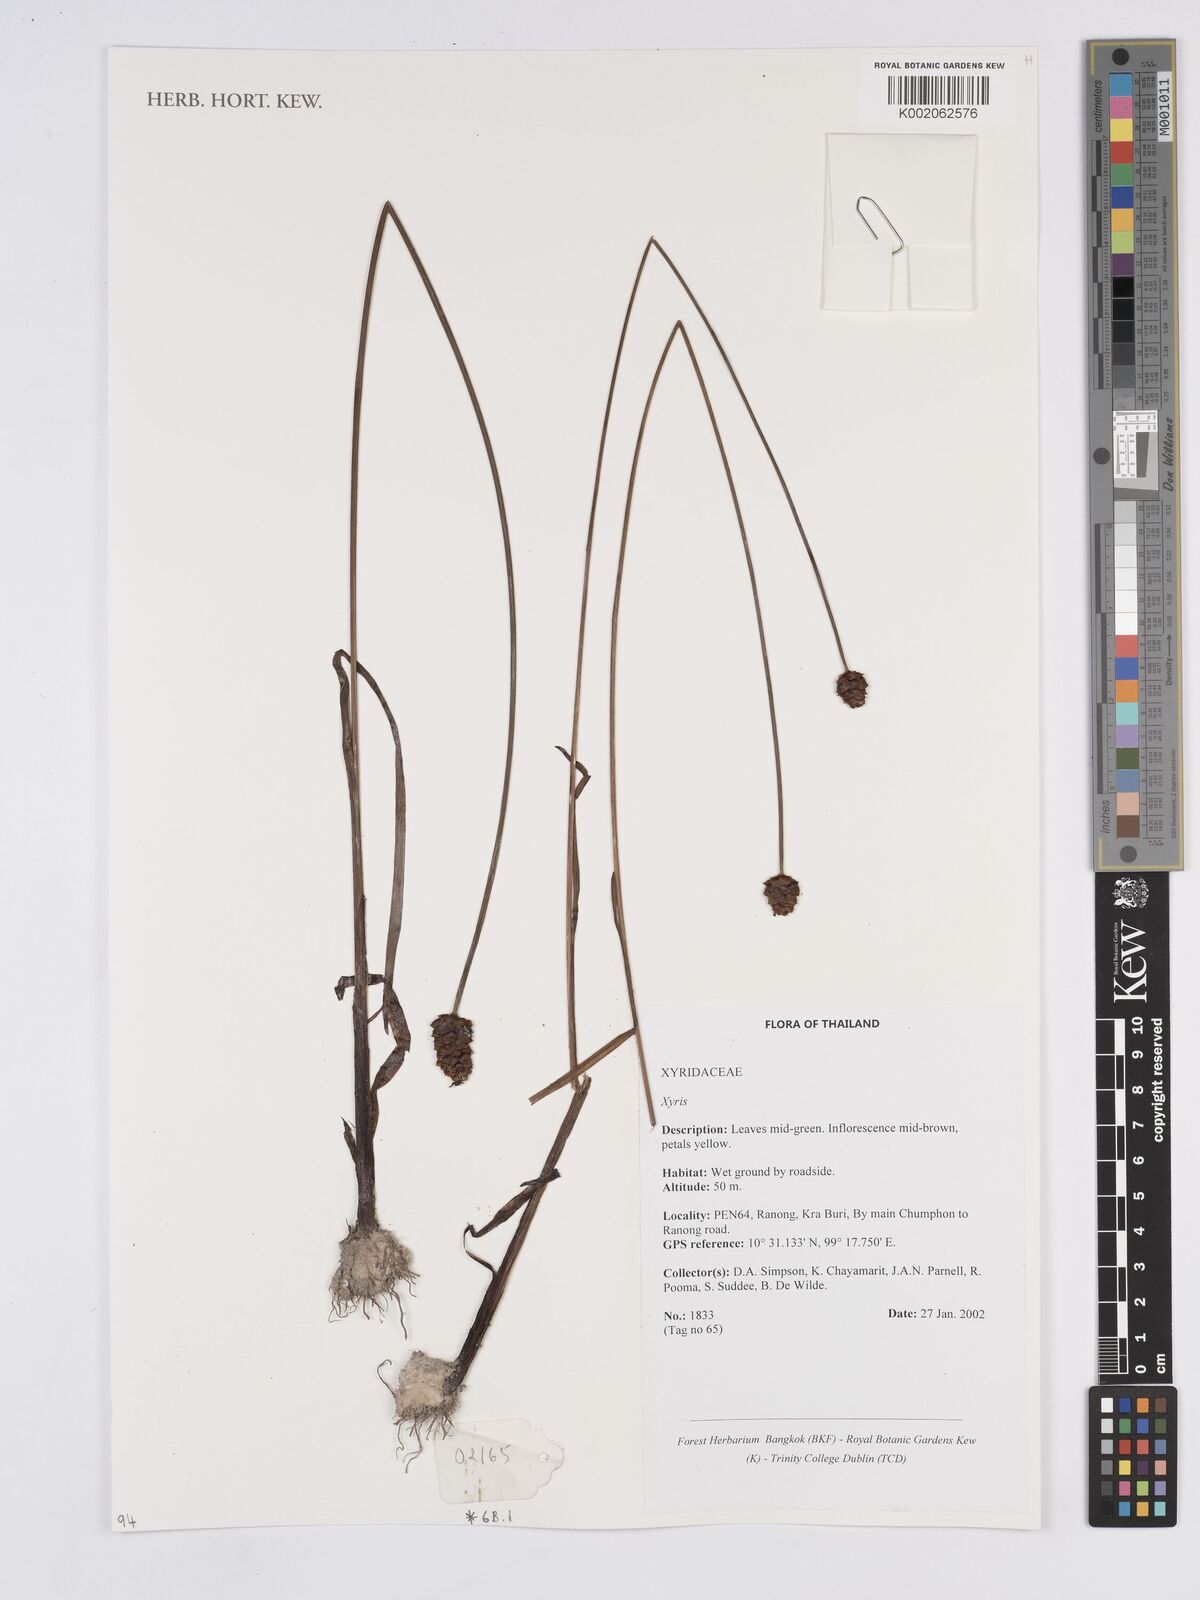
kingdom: Plantae
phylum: Tracheophyta
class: Liliopsida
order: Poales
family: Xyridaceae
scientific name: Xyridaceae
